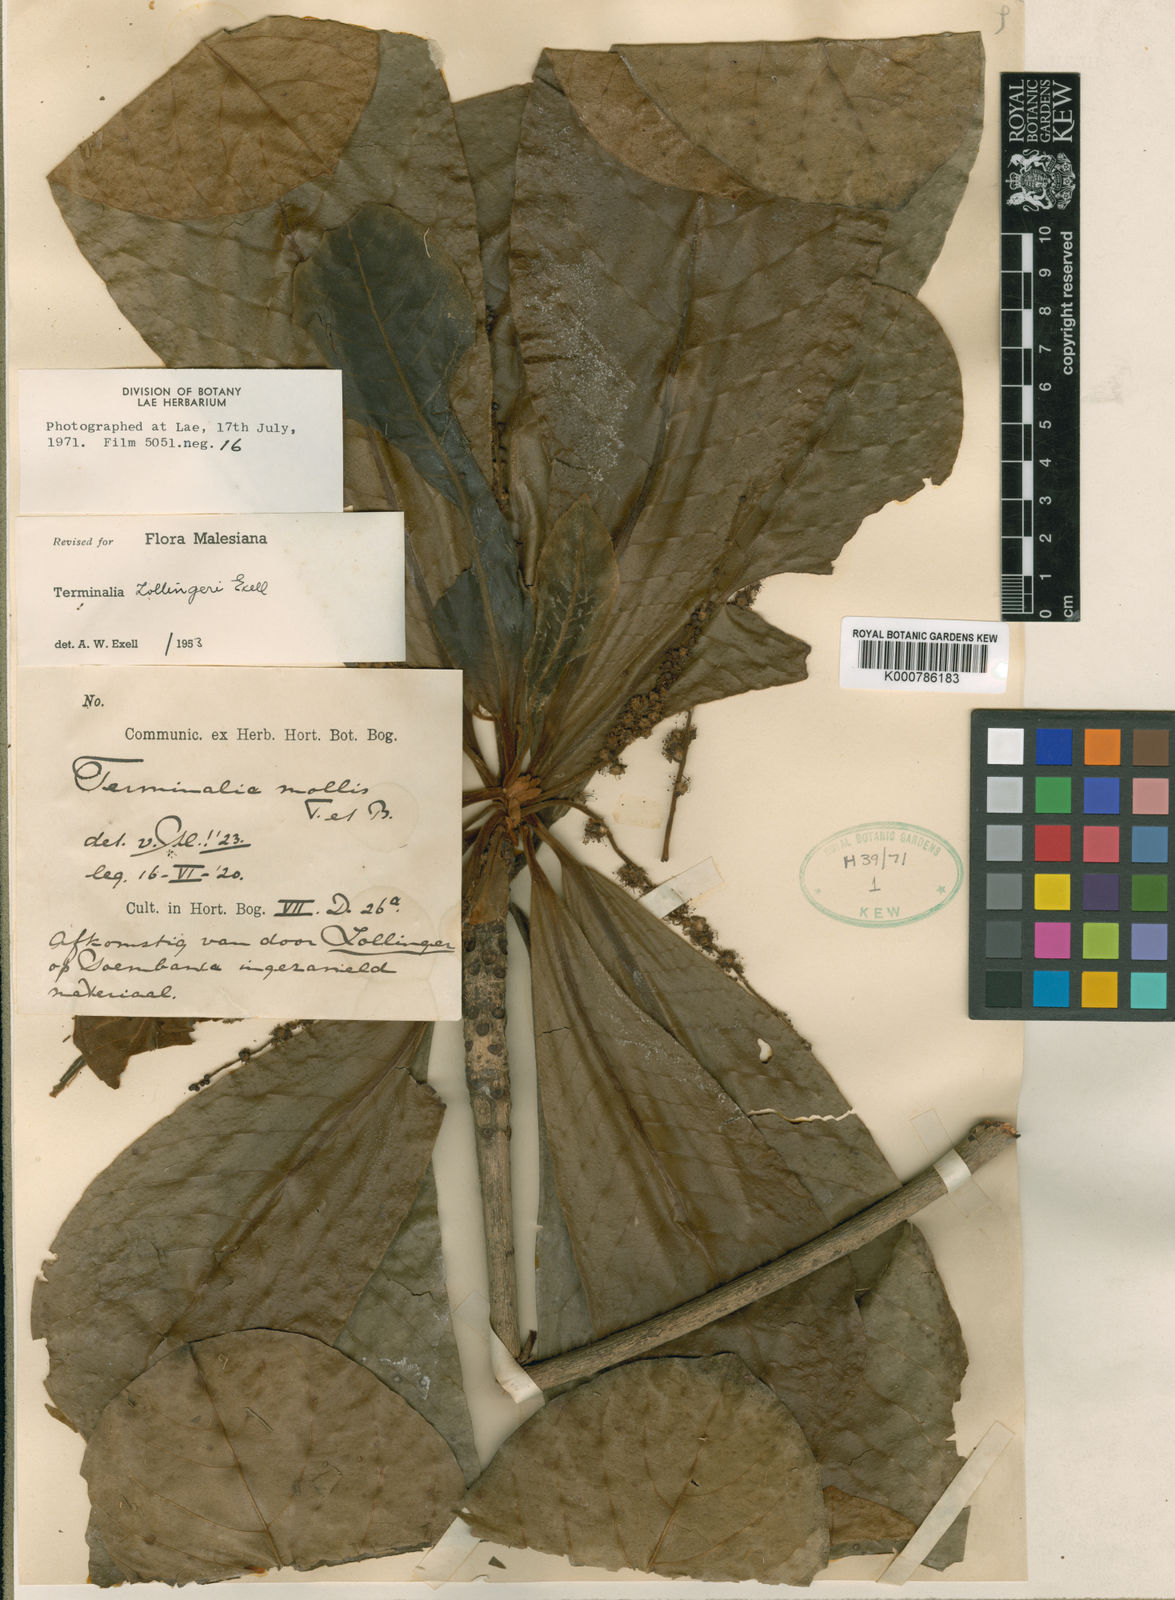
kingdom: Plantae
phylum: Tracheophyta
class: Magnoliopsida
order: Myrtales
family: Combretaceae
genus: Terminalia
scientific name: Terminalia zollingeri
